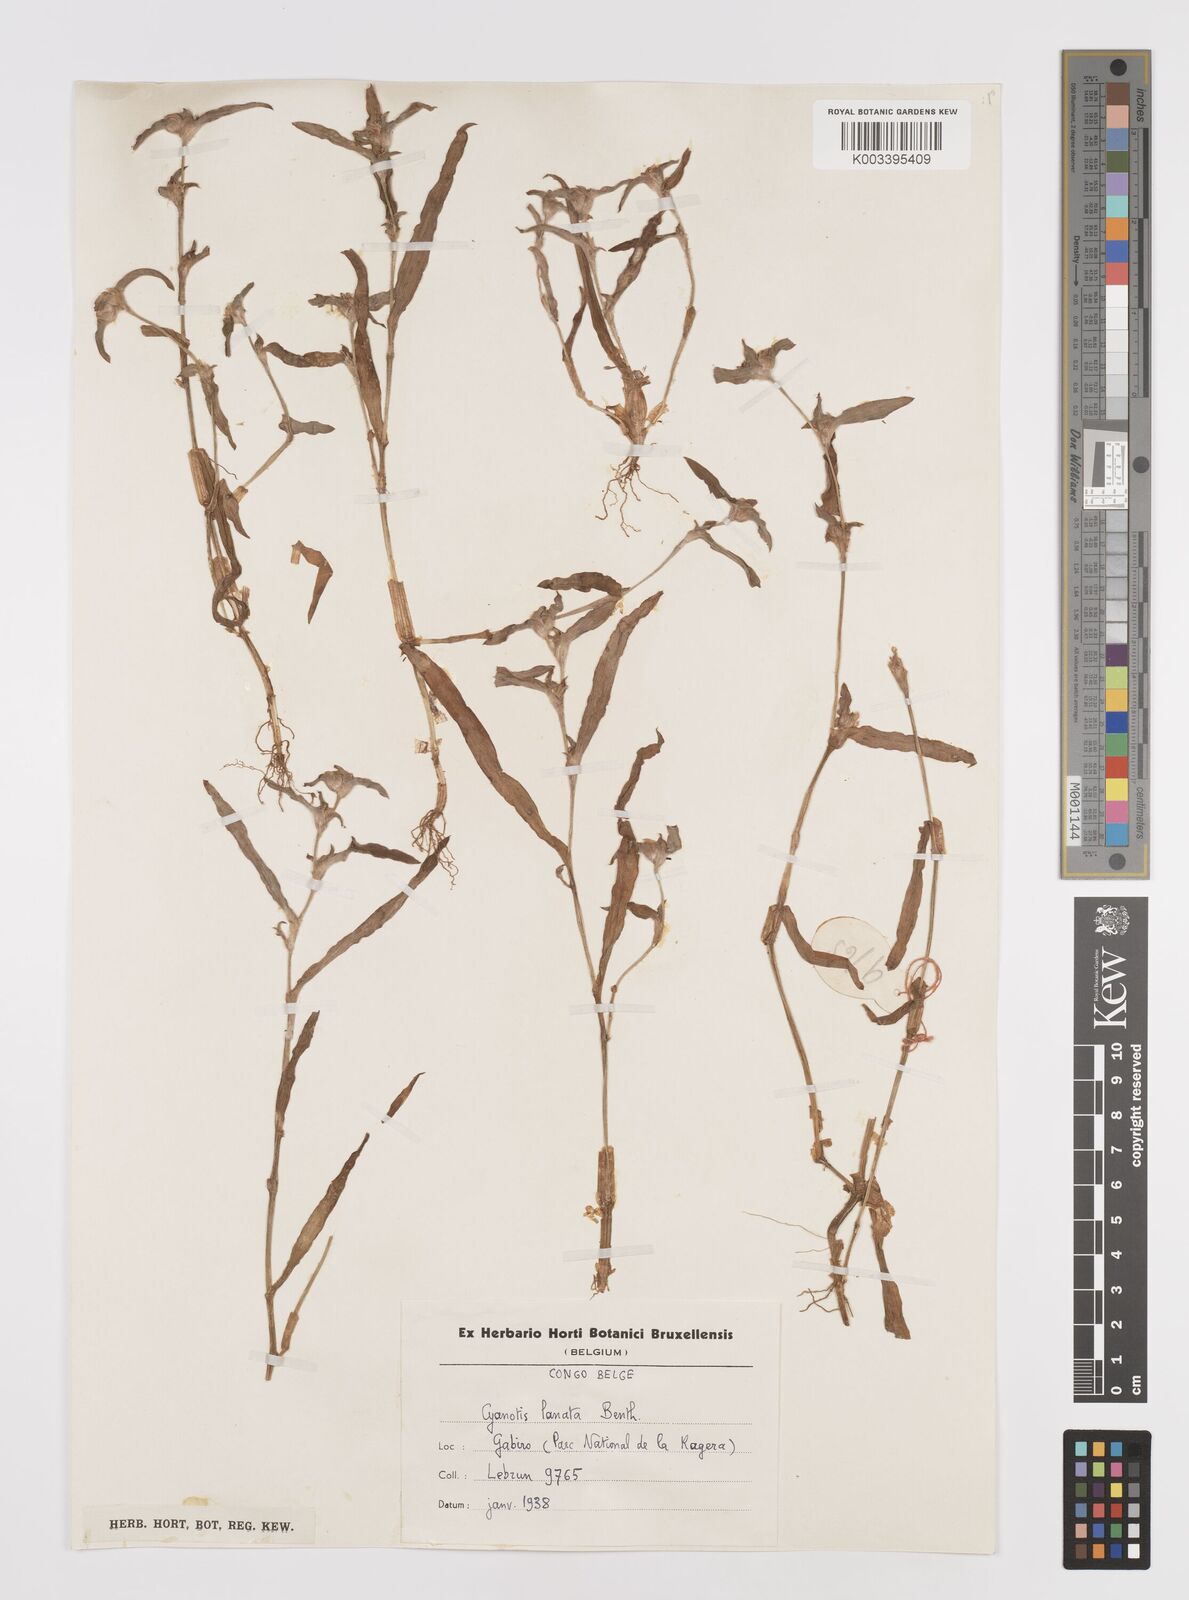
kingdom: Plantae
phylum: Tracheophyta
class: Liliopsida
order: Commelinales
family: Commelinaceae
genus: Cyanotis
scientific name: Cyanotis lanata
